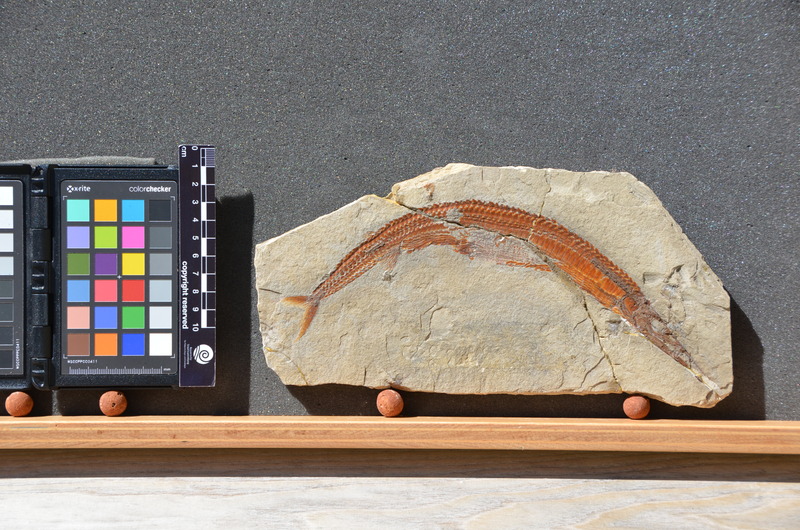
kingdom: Animalia
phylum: Chordata
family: Aspidorhynchidae
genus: Belonostomus
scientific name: Belonostomus kochii
